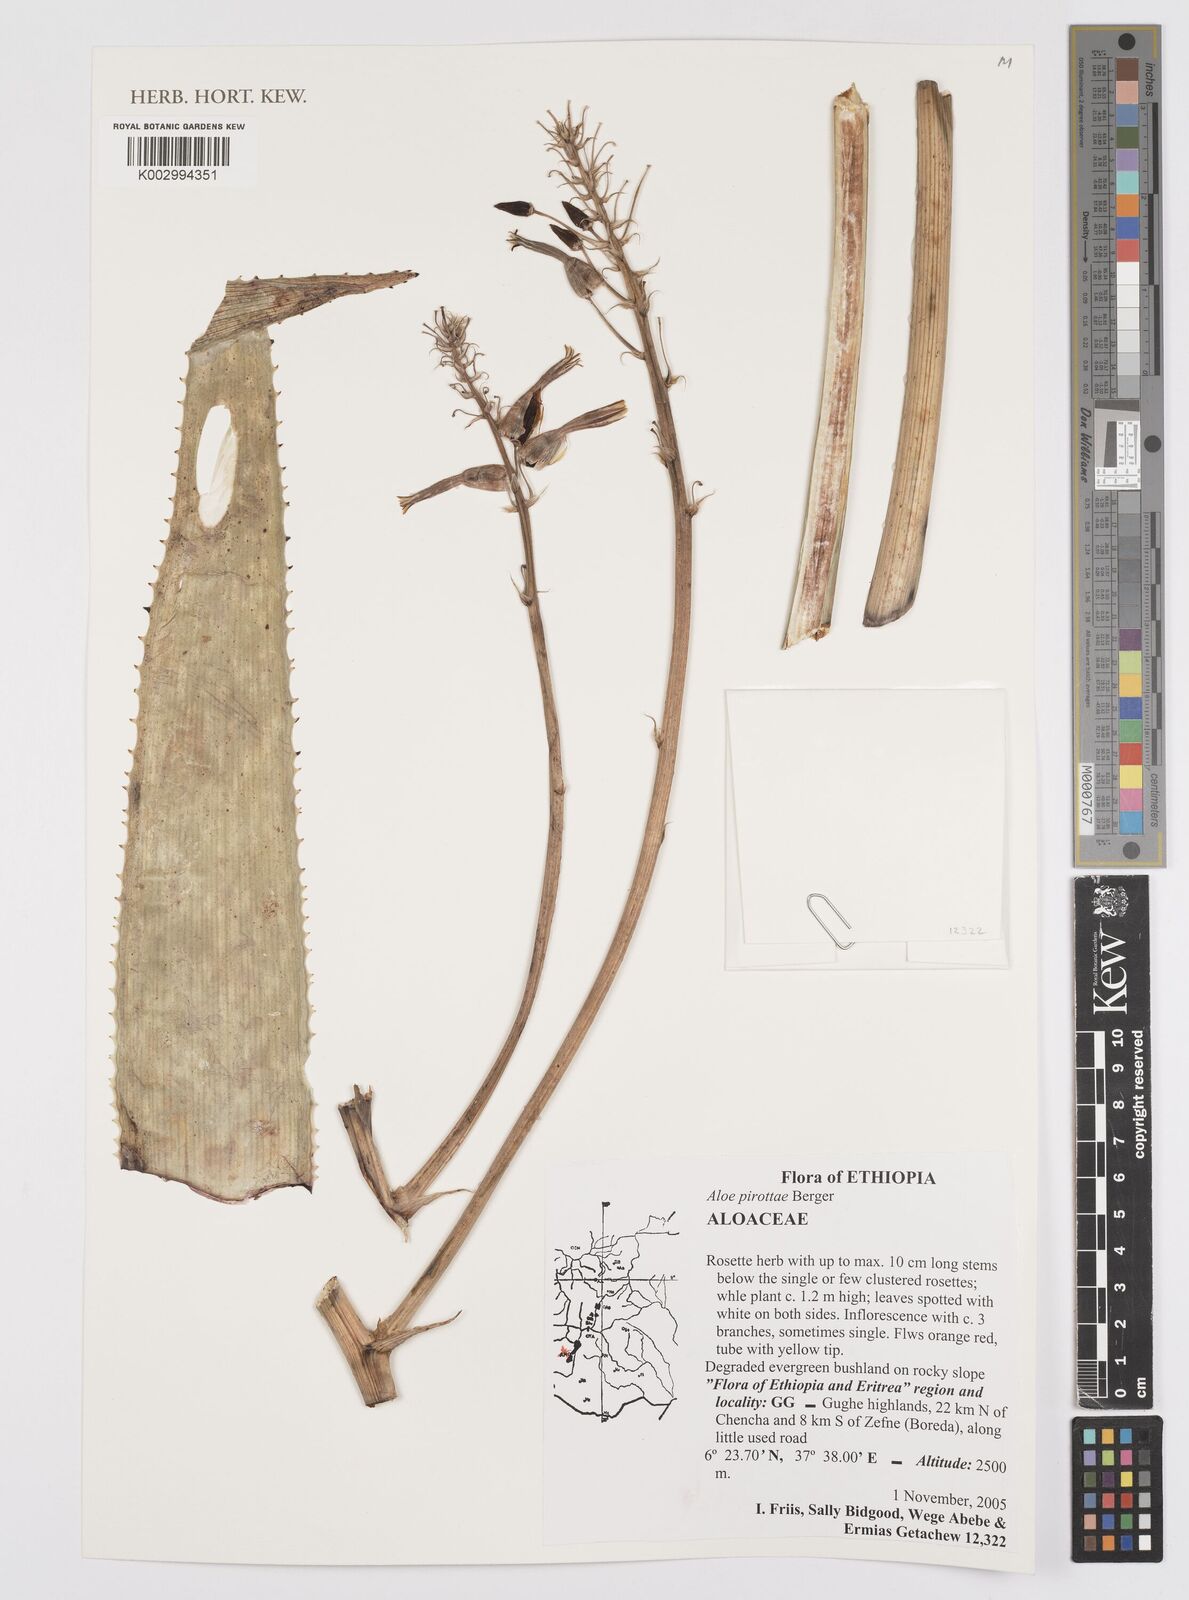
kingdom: Plantae
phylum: Tracheophyta
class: Liliopsida
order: Asparagales
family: Asphodelaceae
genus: Aloe
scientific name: Aloe pirottae
